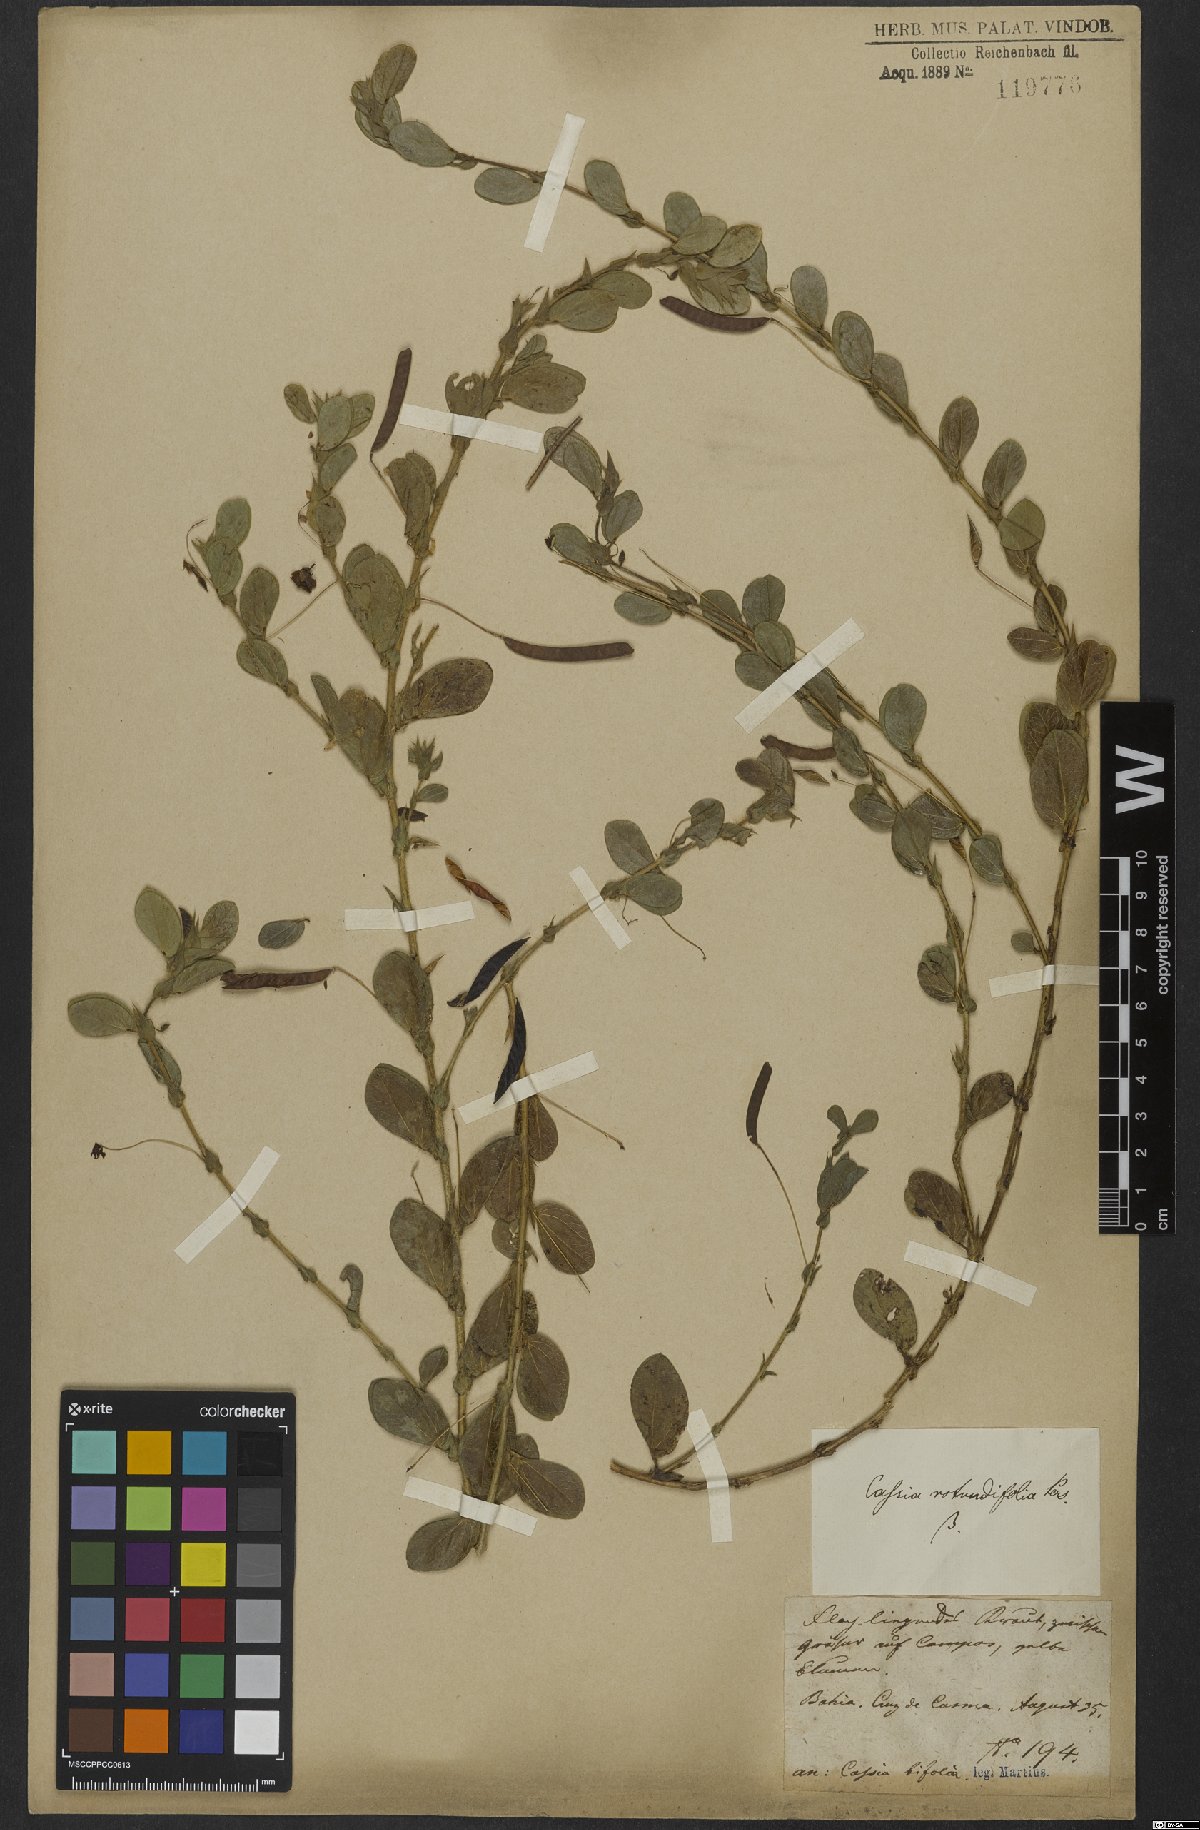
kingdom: Plantae
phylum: Tracheophyta
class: Magnoliopsida
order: Fabales
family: Fabaceae
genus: Chamaecrista
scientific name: Chamaecrista rotundifolia
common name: Round-leaf cassia
